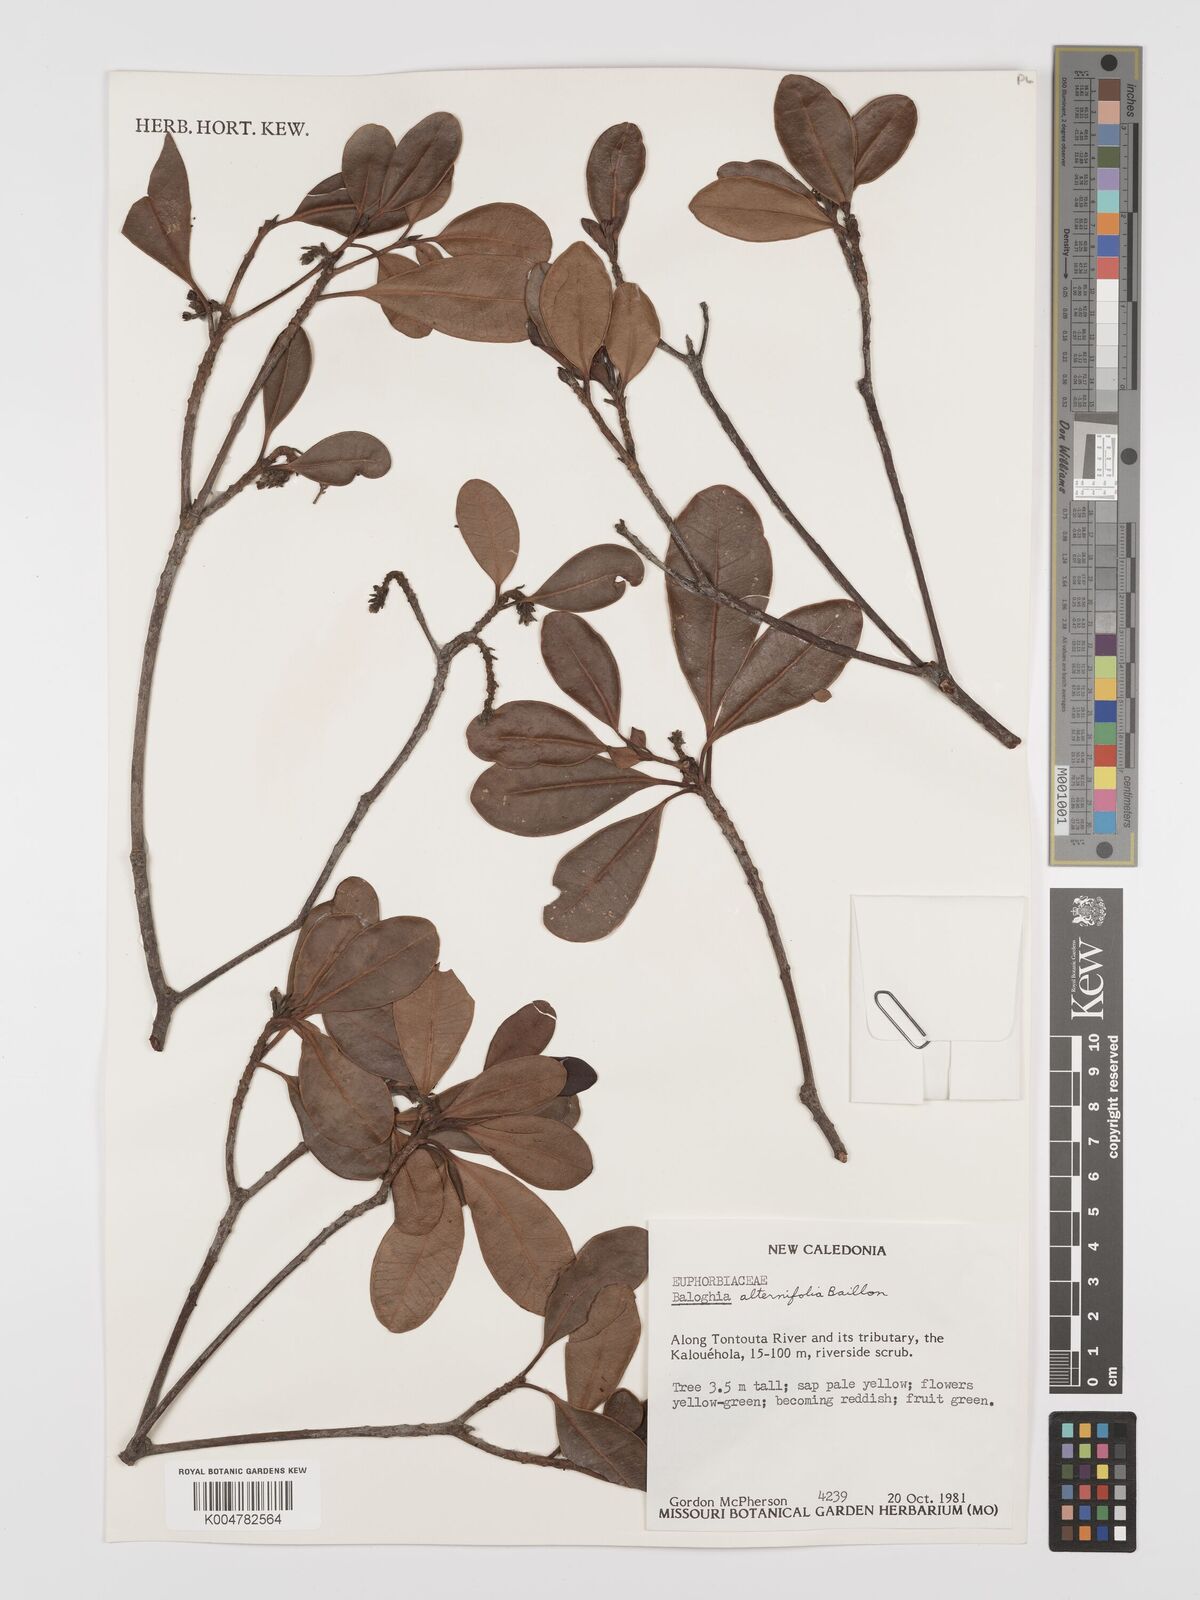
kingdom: Plantae
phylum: Tracheophyta
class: Magnoliopsida
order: Malpighiales
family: Euphorbiaceae
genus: Baloghia
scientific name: Baloghia alternifolia
